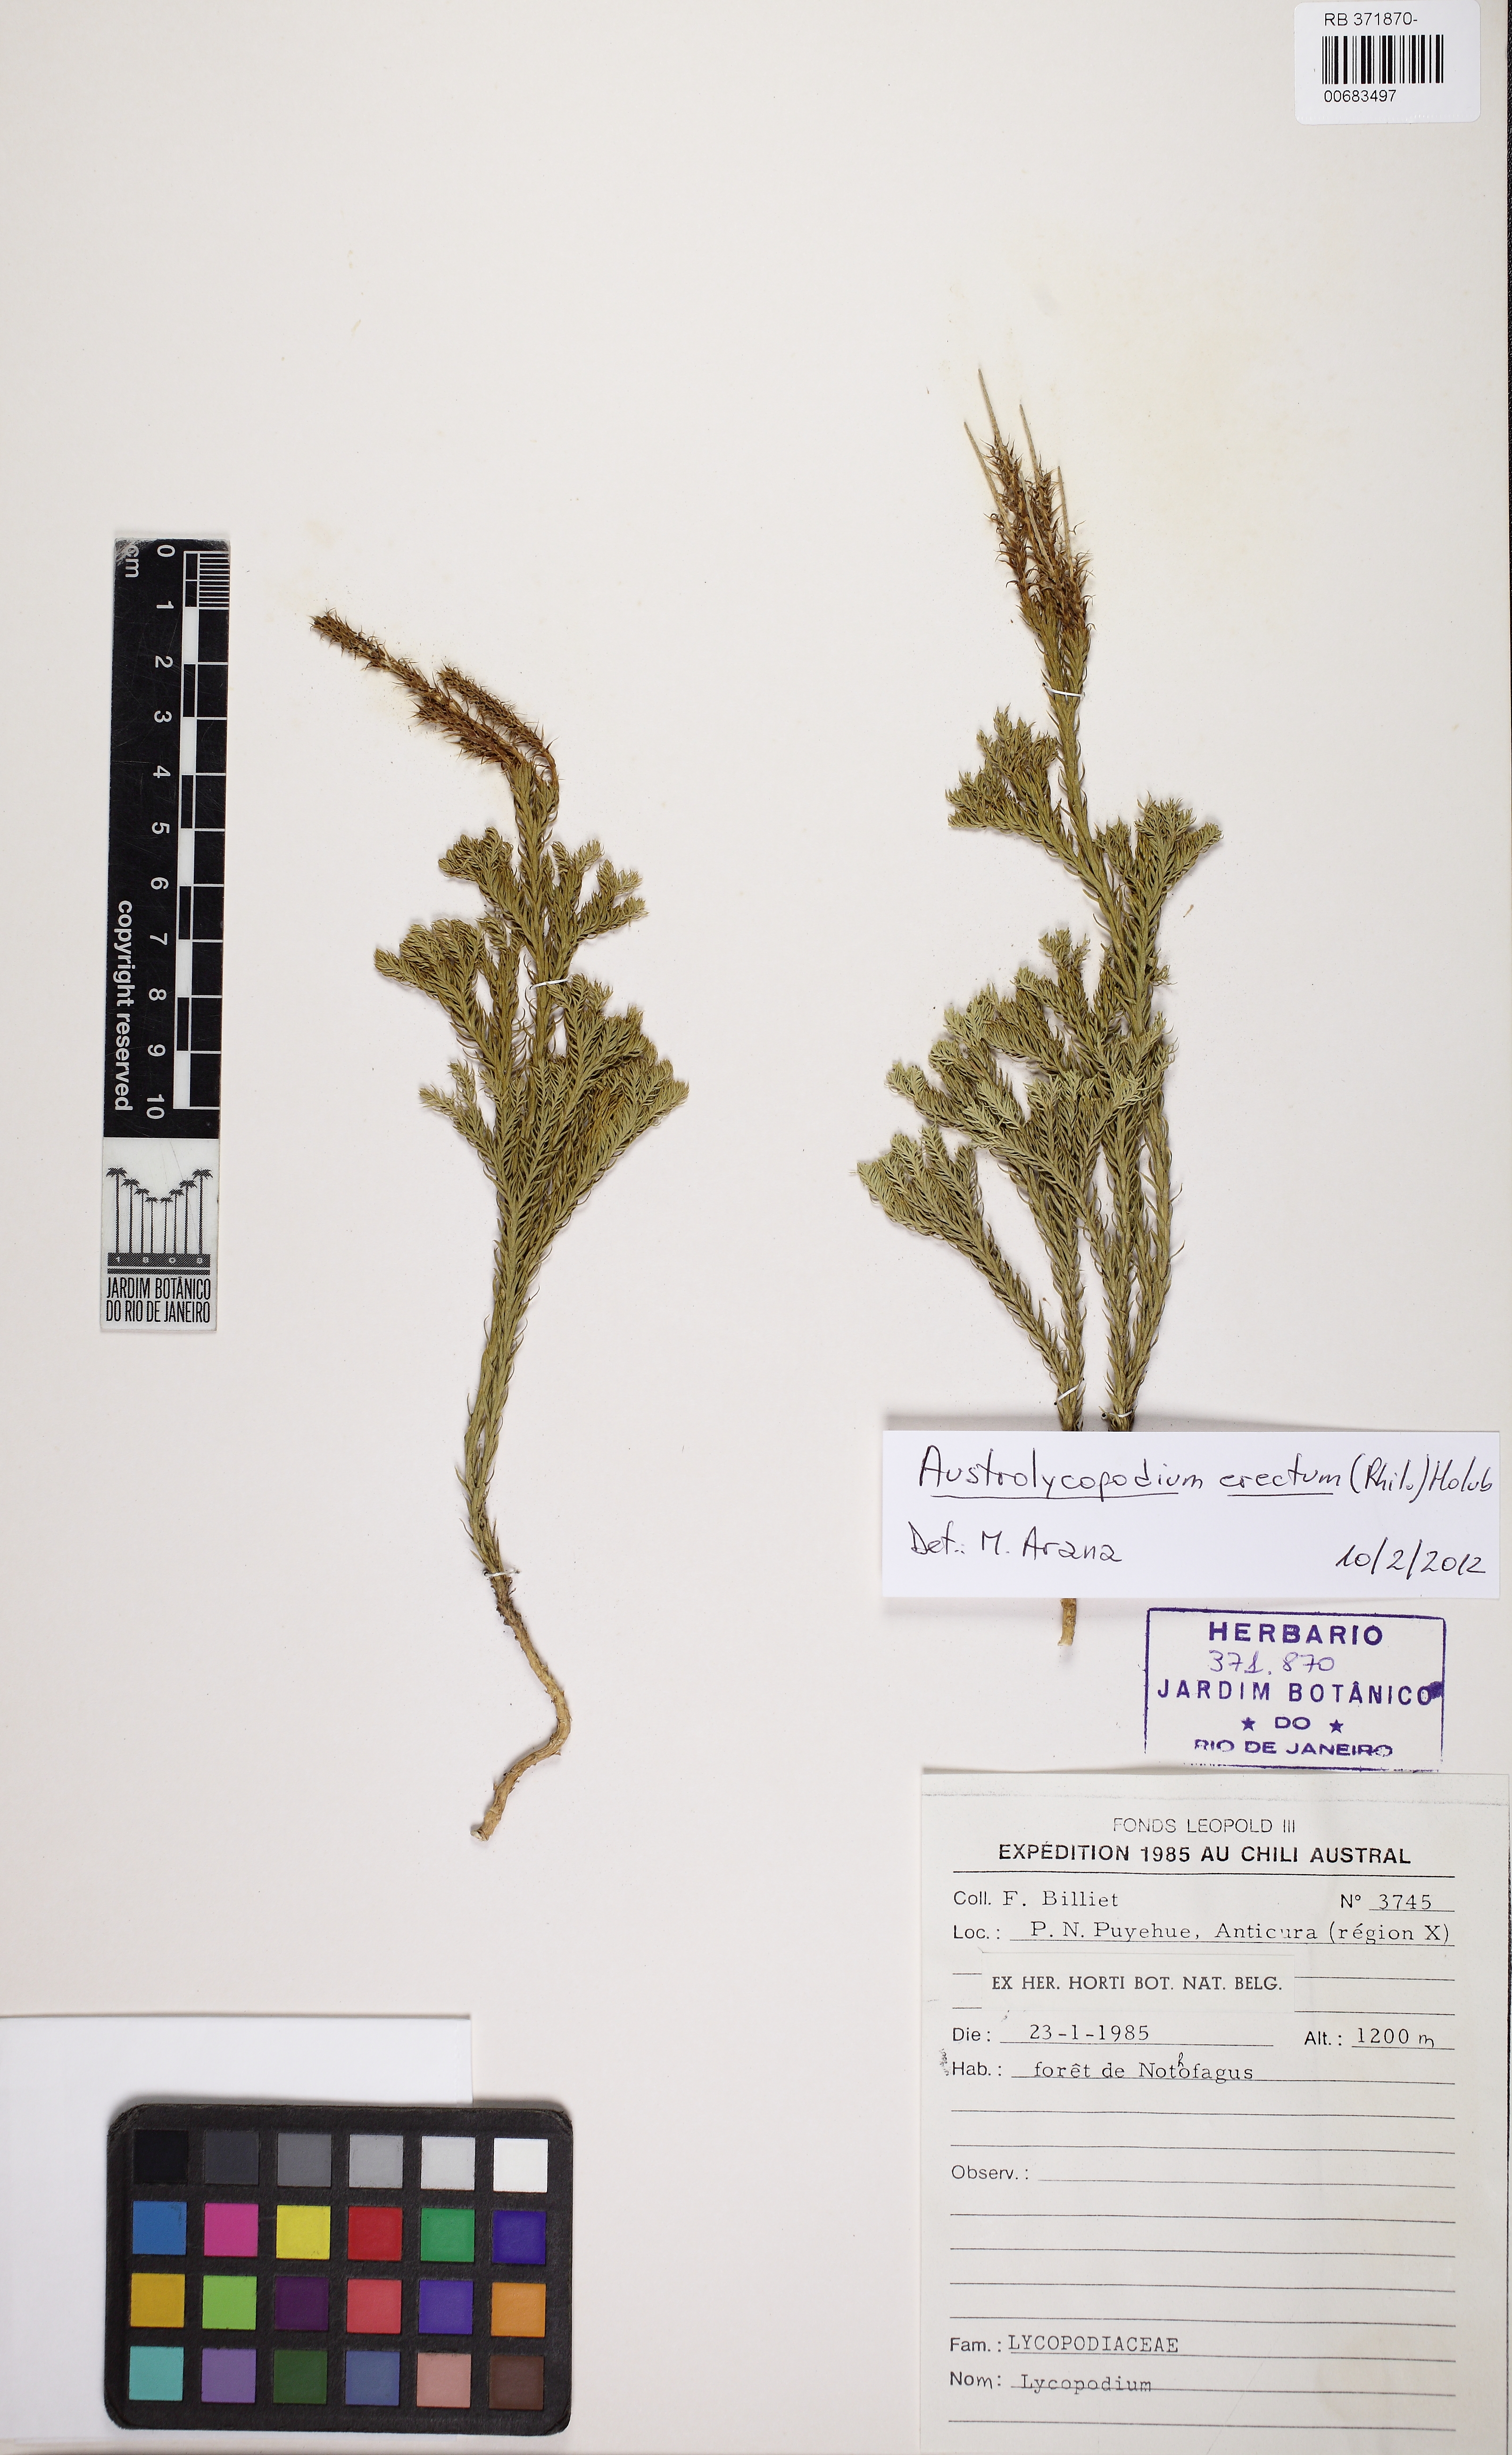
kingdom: Plantae
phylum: Tracheophyta
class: Lycopodiopsida
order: Lycopodiales
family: Lycopodiaceae
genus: Austrolycopodium
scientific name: Austrolycopodium erectum
